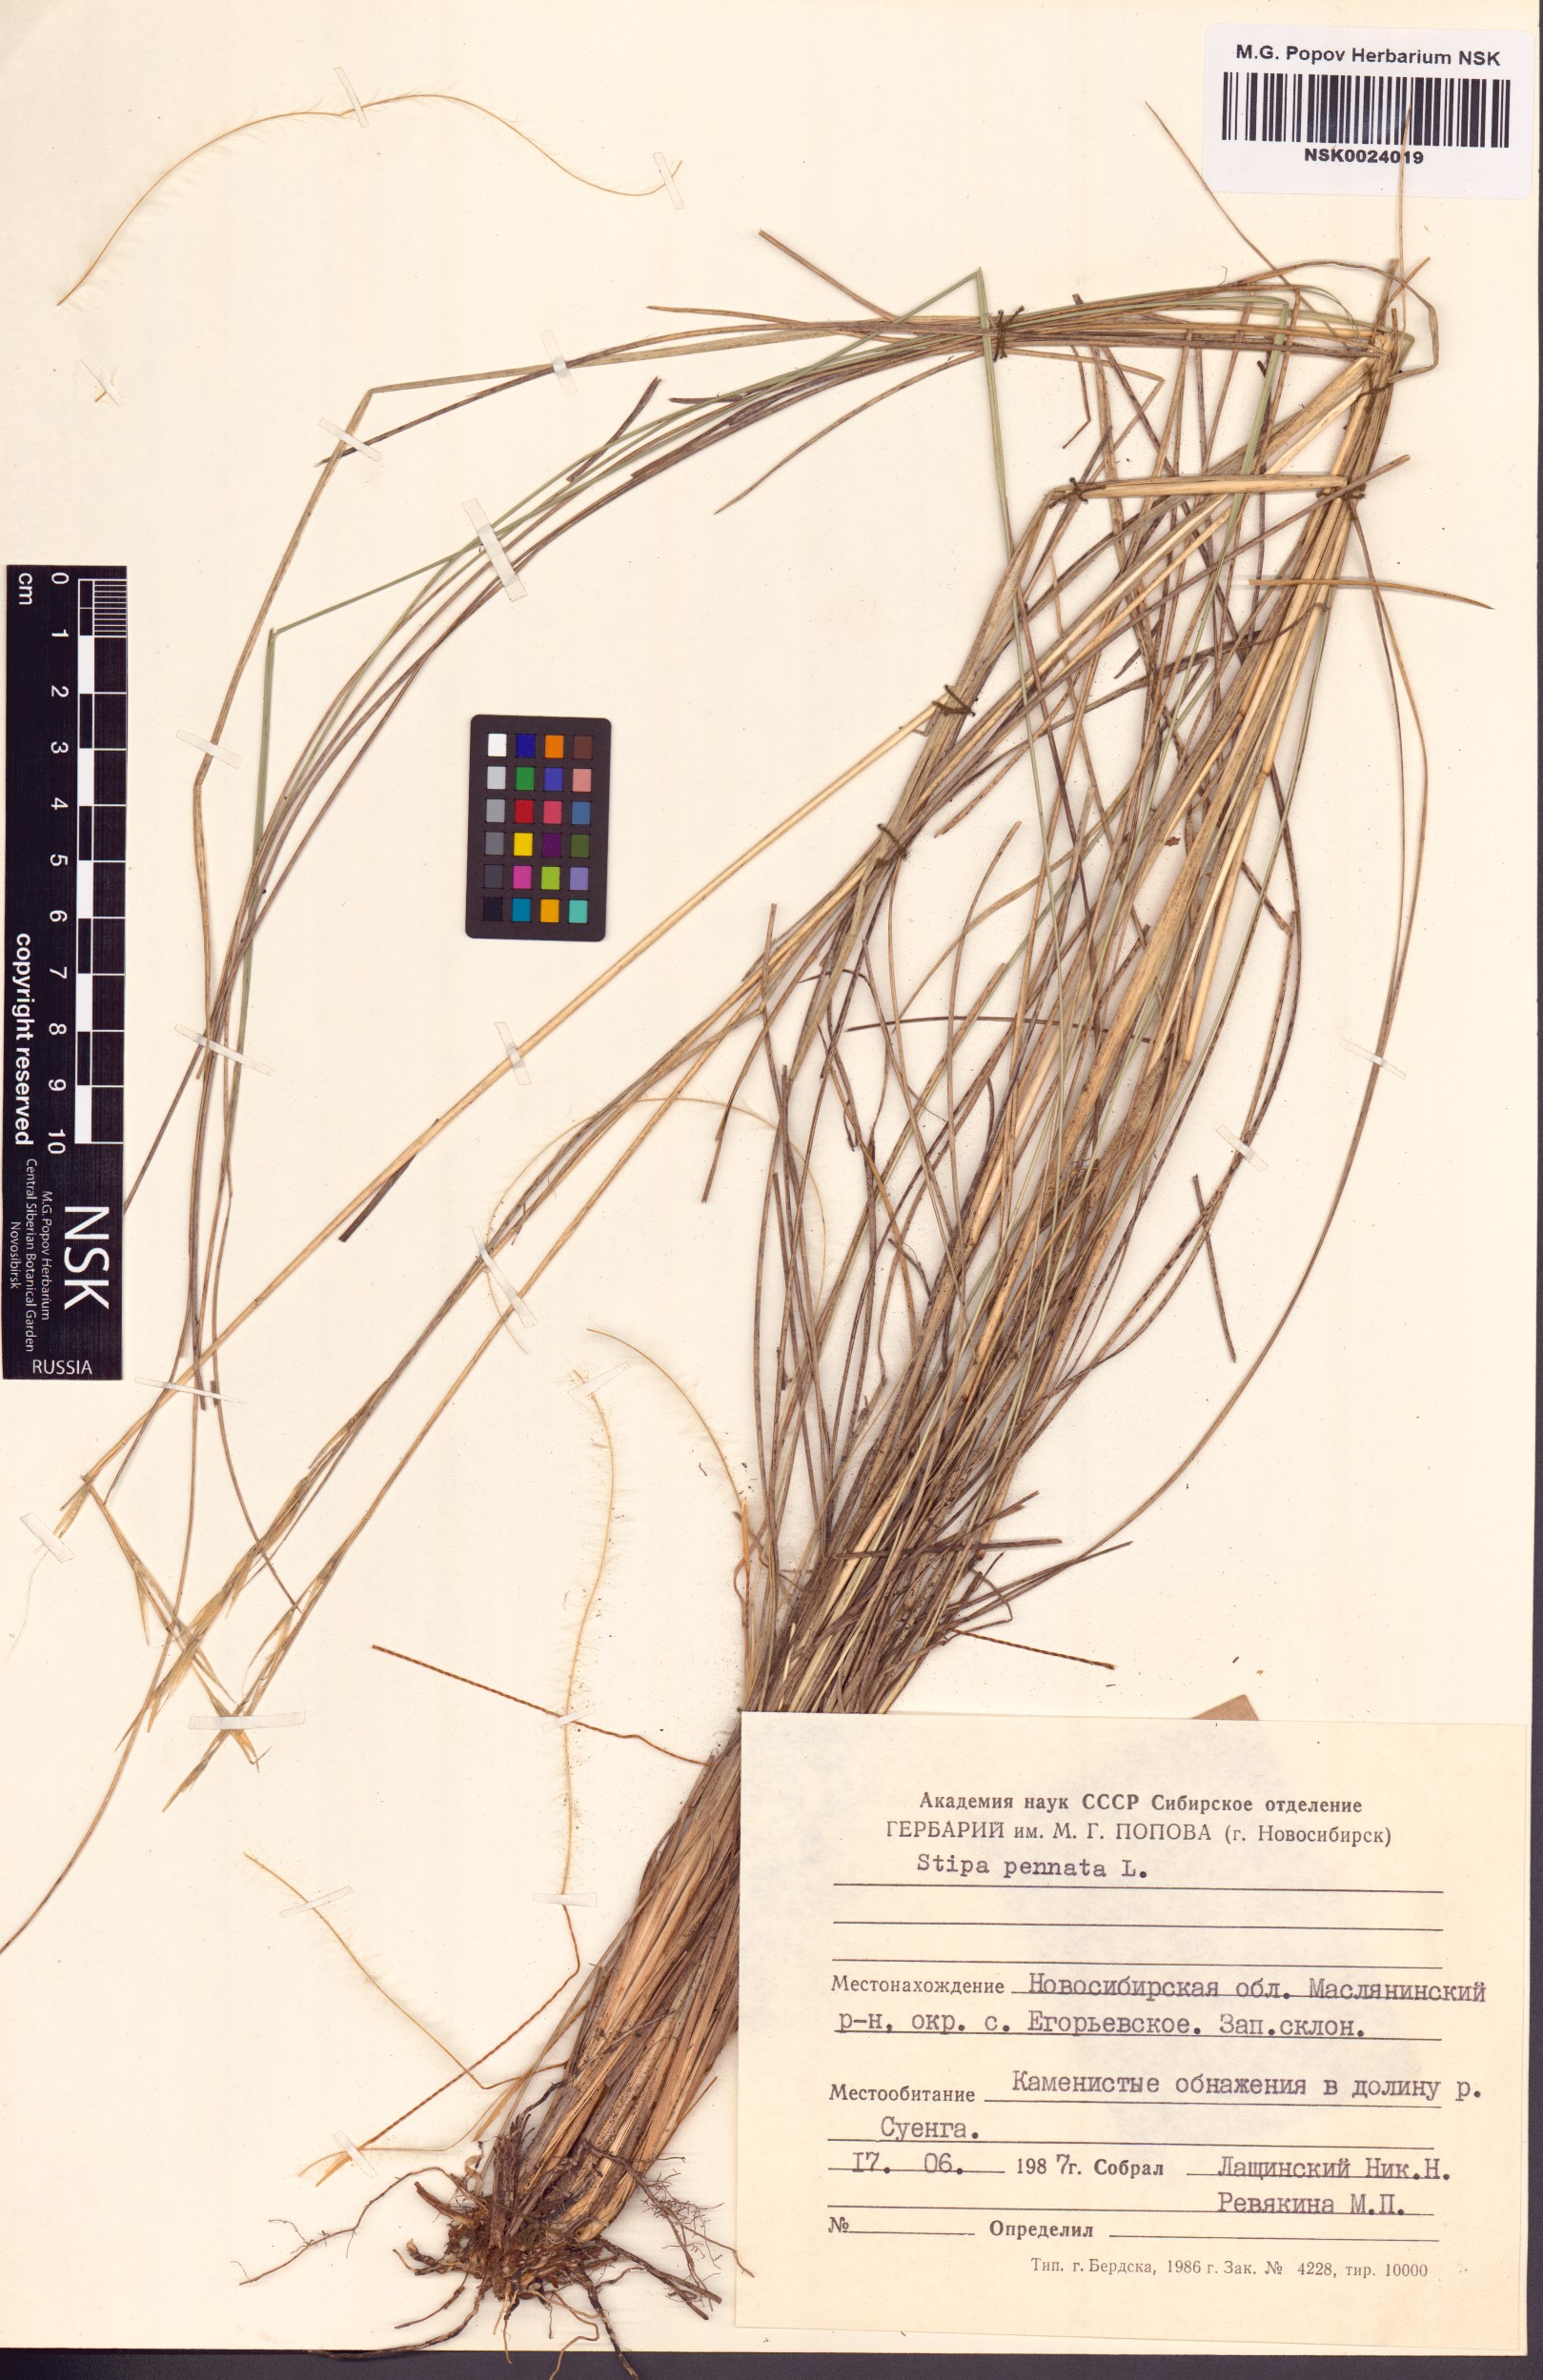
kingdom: Plantae
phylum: Tracheophyta
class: Liliopsida
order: Poales
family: Poaceae
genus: Stipa
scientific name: Stipa pennata
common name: European feather grass
